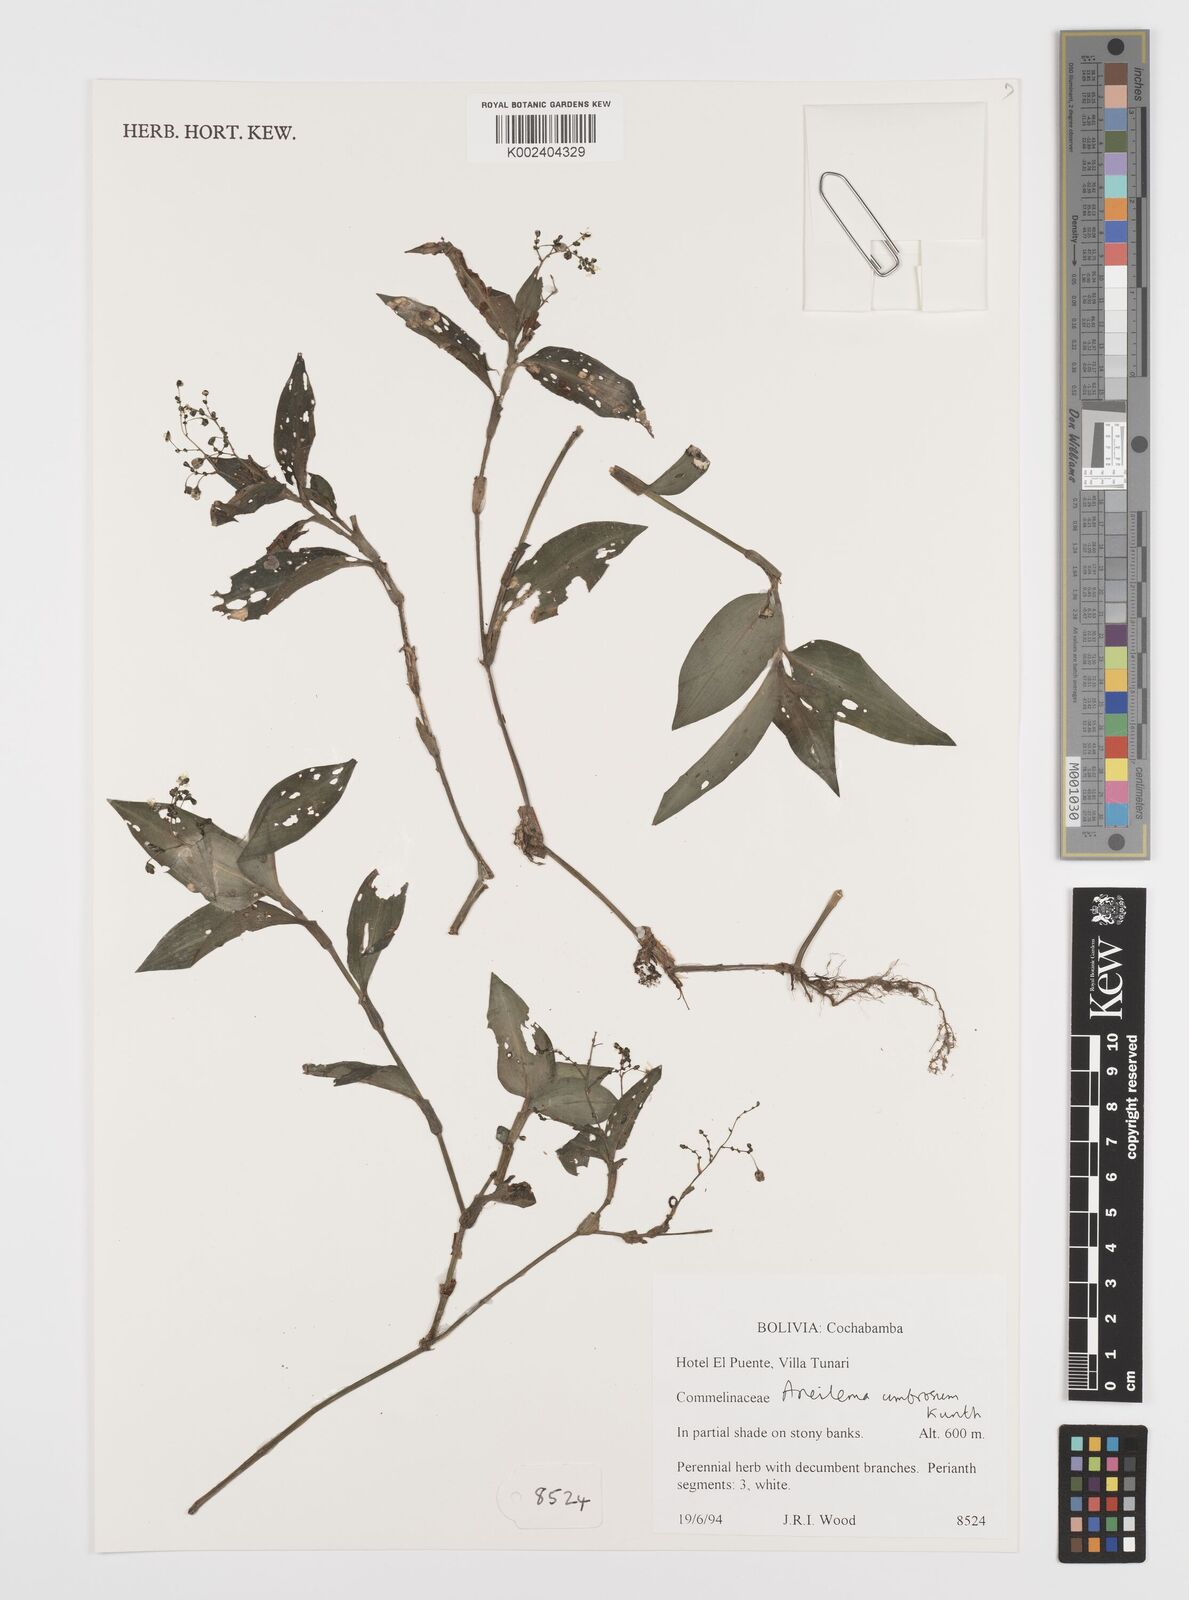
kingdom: Plantae
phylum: Tracheophyta
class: Liliopsida
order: Commelinales
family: Commelinaceae
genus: Aneilema
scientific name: Aneilema umbrosum
